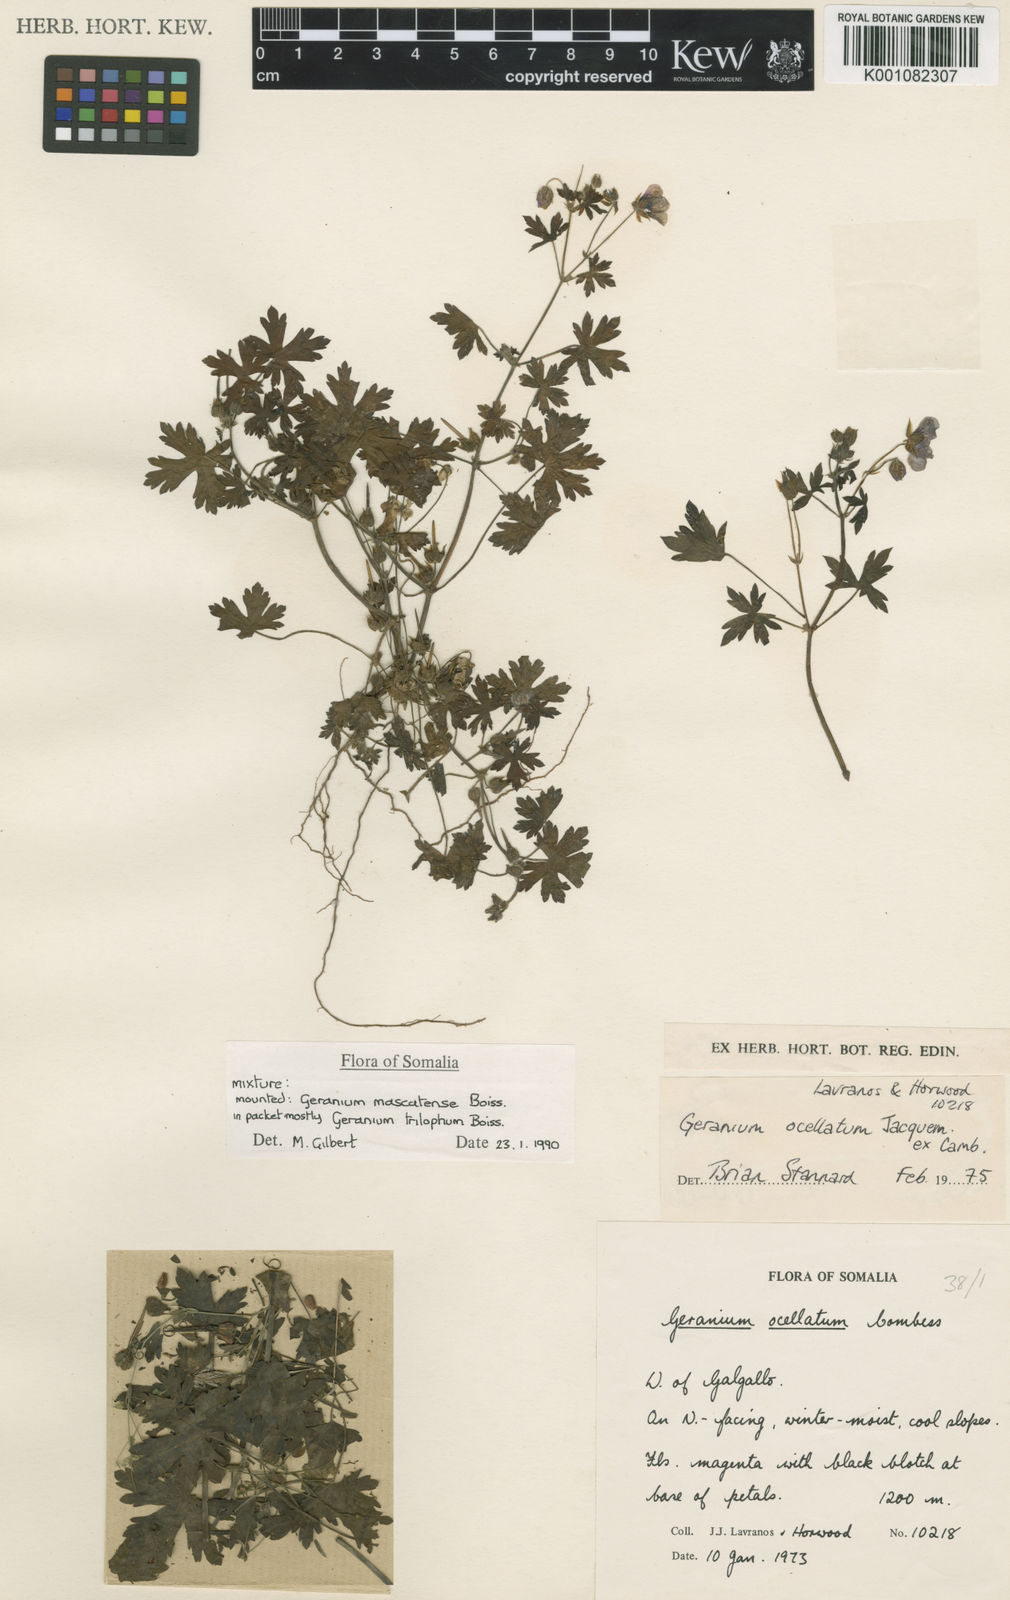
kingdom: Plantae
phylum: Tracheophyta
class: Magnoliopsida
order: Geraniales
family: Geraniaceae
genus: Geranium
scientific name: Geranium mascatense
